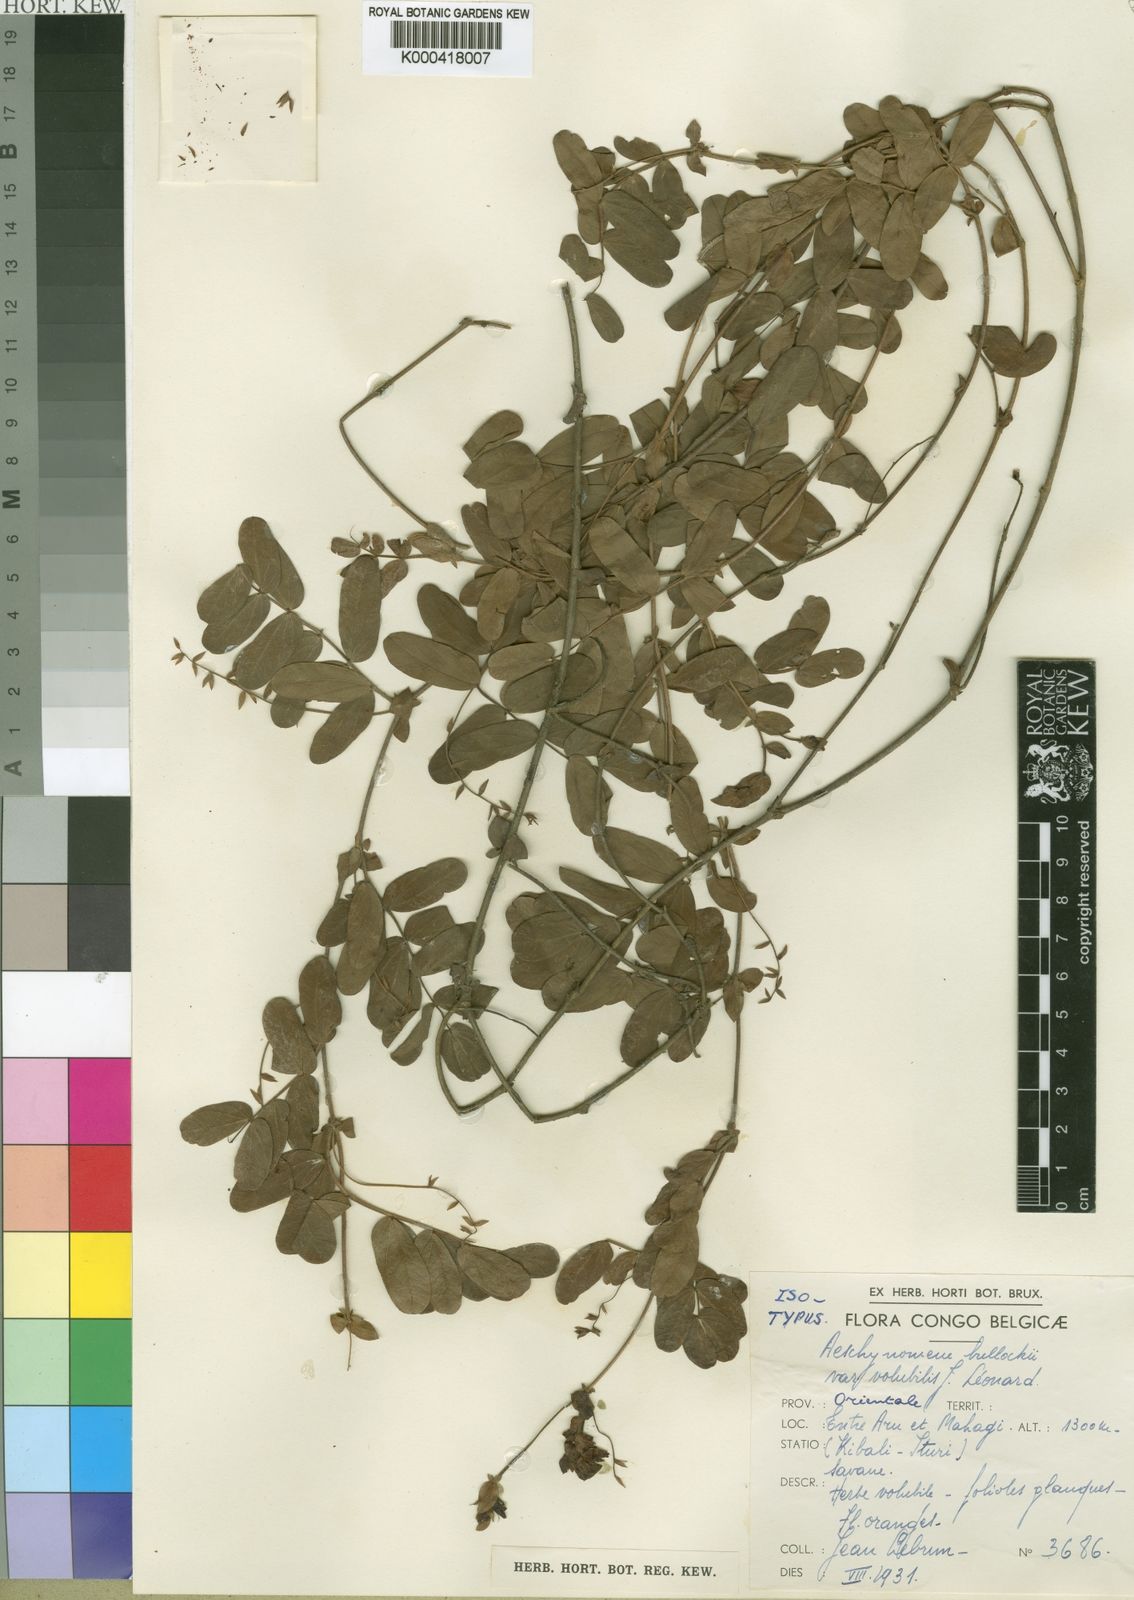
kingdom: Plantae
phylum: Tracheophyta
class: Magnoliopsida
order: Fabales
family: Fabaceae
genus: Aeschynomene
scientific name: Aeschynomene
